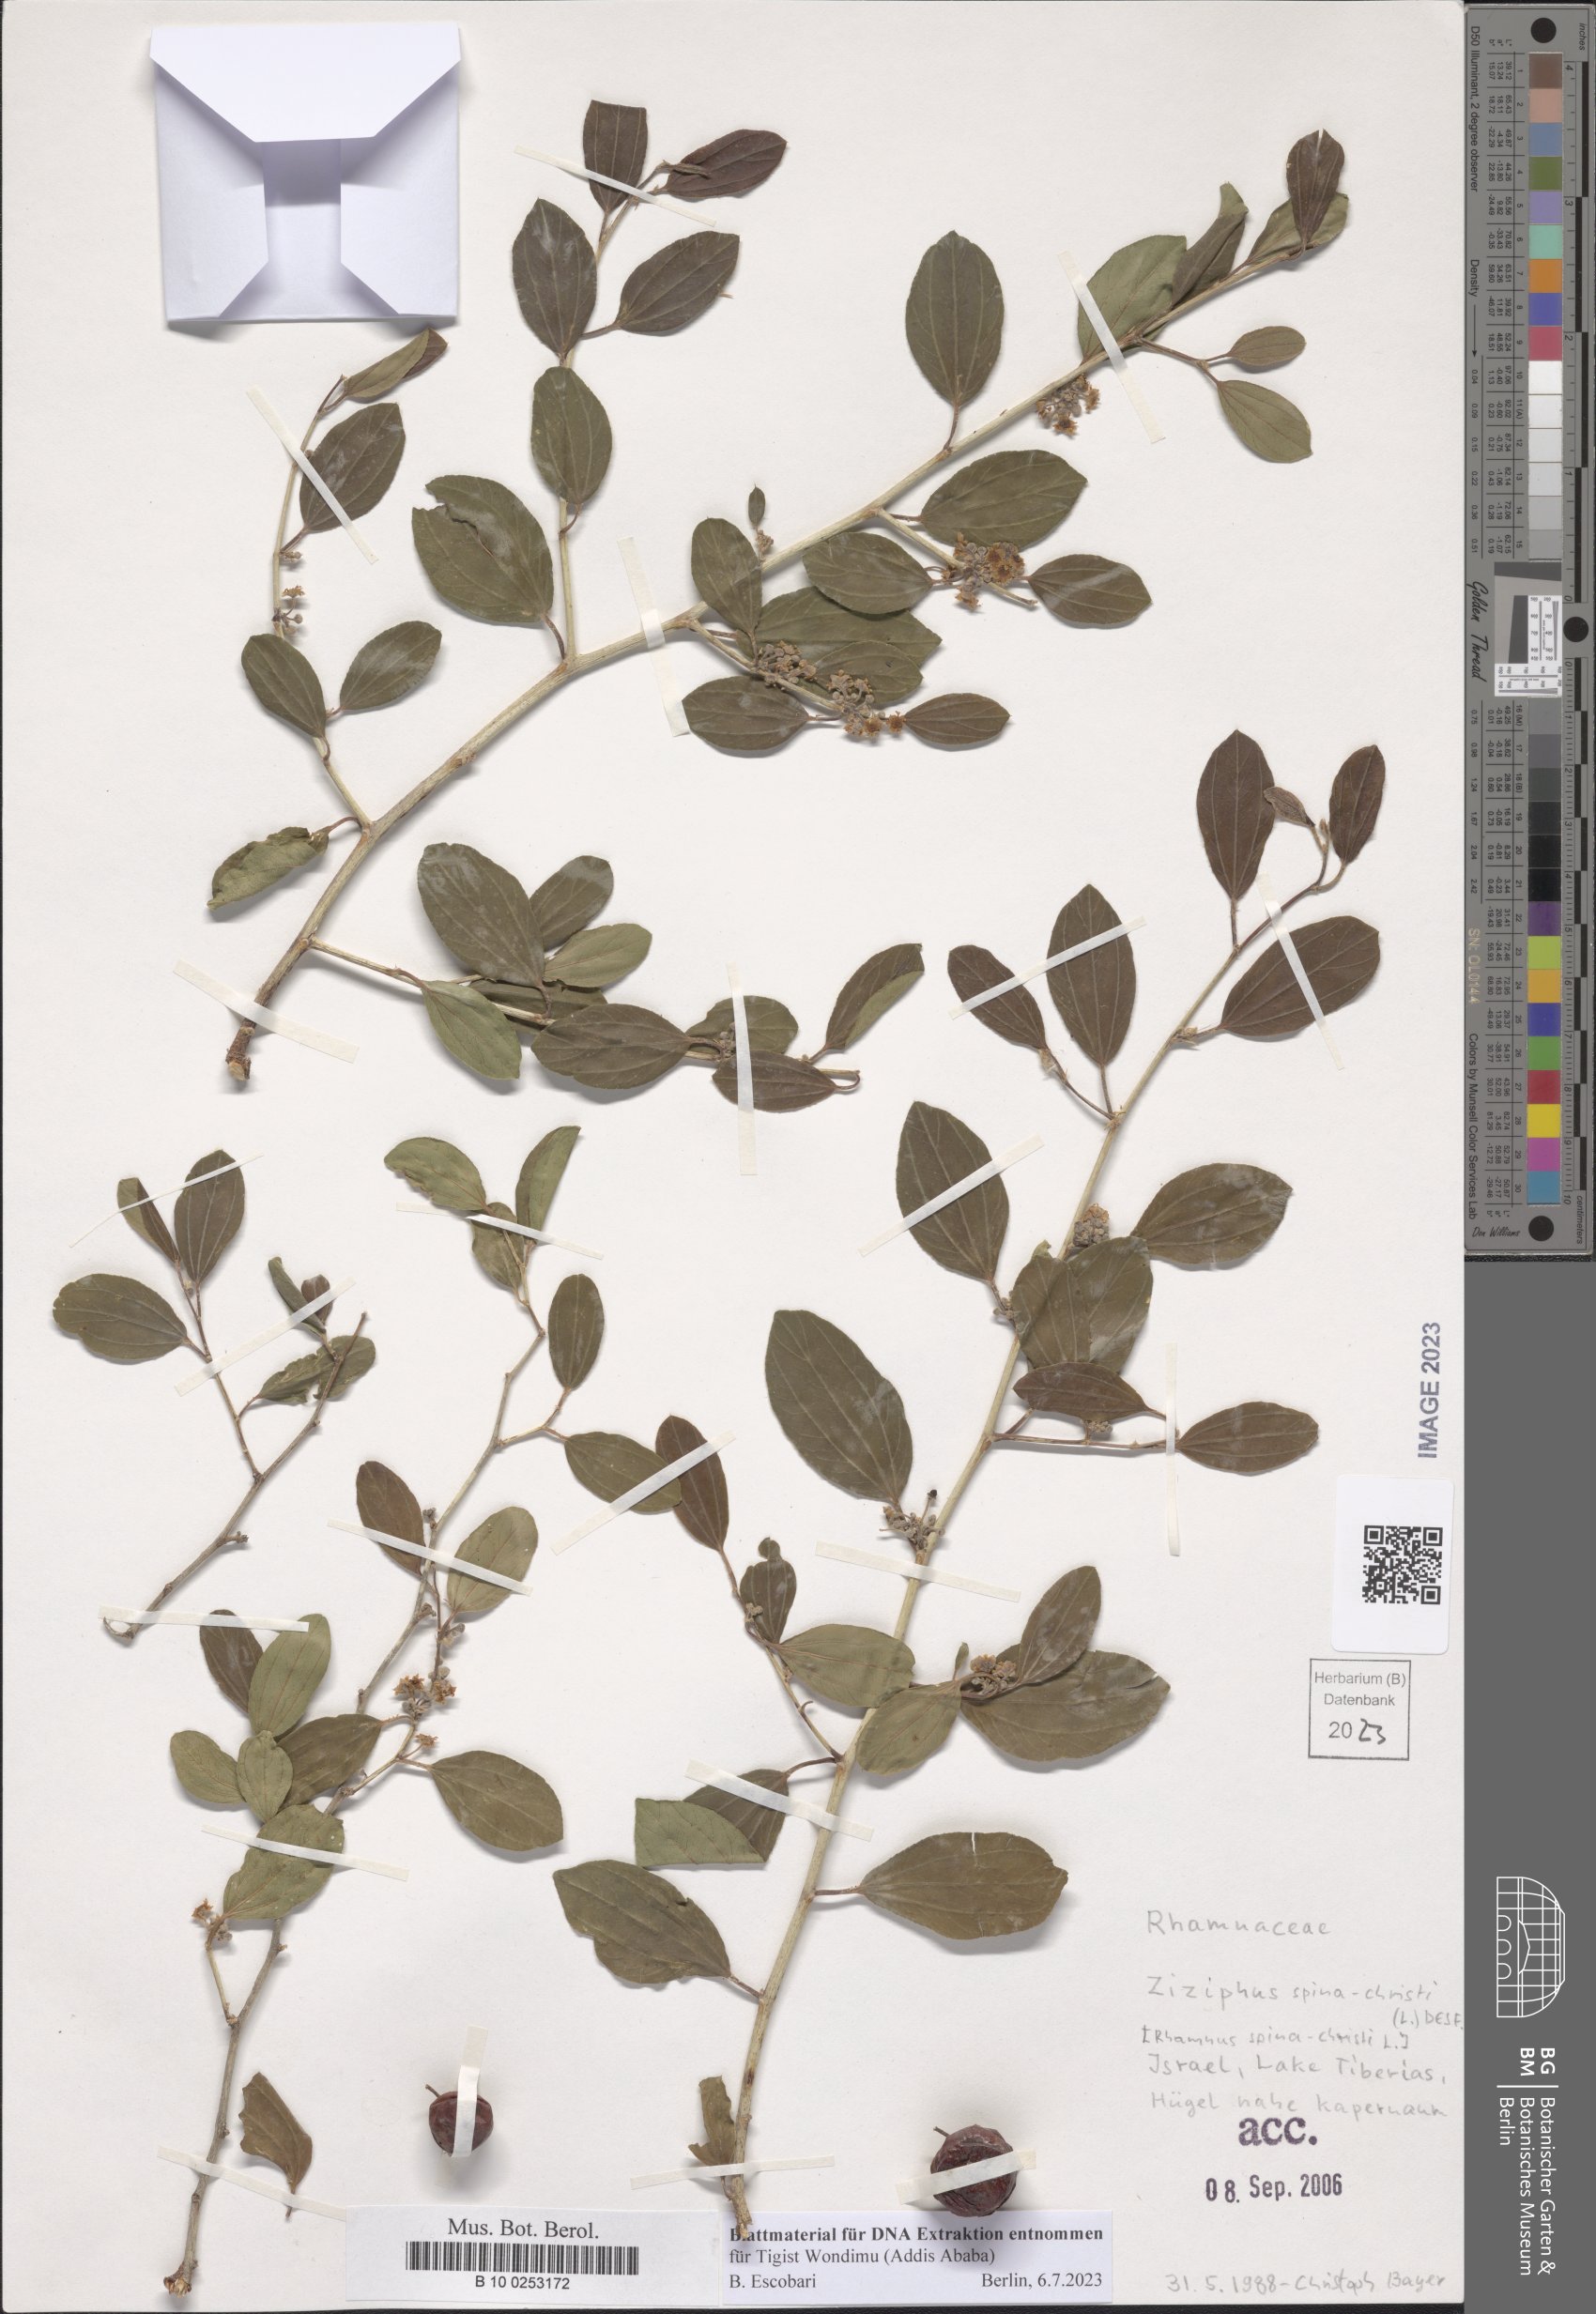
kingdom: Plantae
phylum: Tracheophyta
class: Magnoliopsida
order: Rosales
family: Rhamnaceae
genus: Ziziphus
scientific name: Ziziphus spina-christi
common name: Syrian christ-thorn
